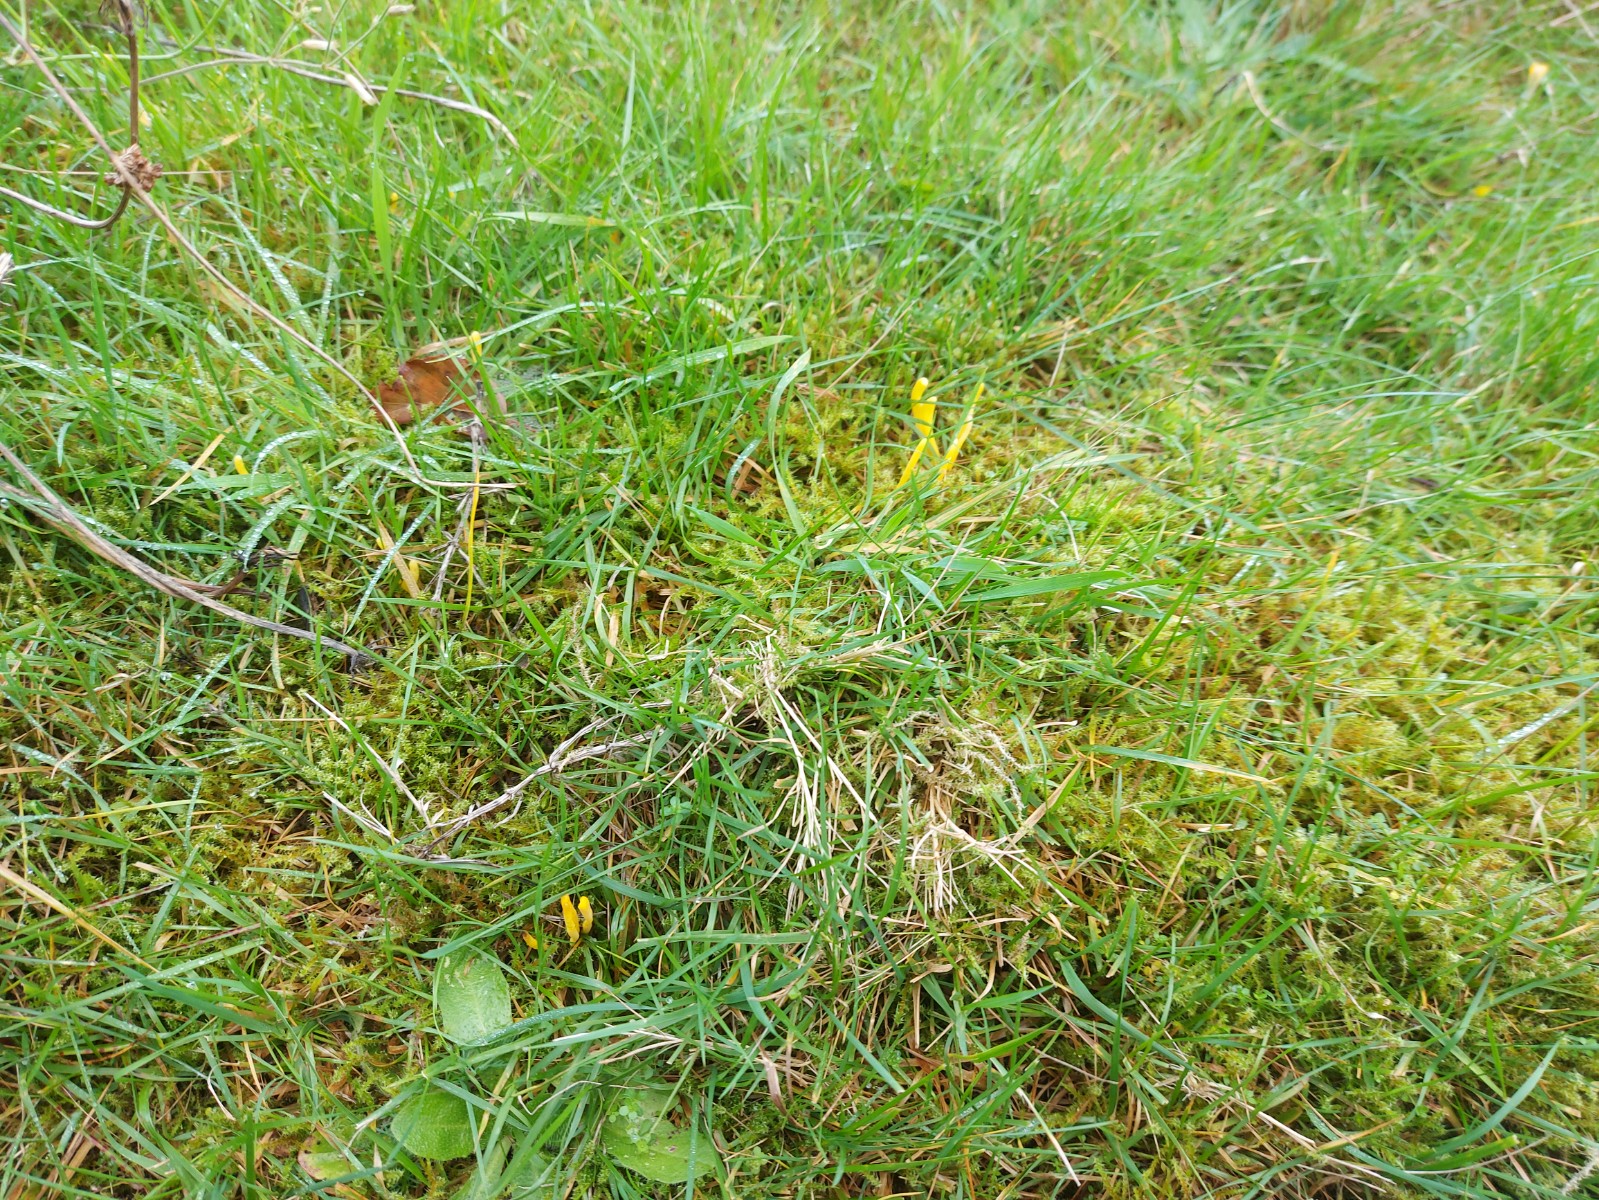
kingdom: Fungi
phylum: Basidiomycota
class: Agaricomycetes
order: Agaricales
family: Clavariaceae
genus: Clavulinopsis
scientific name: Clavulinopsis
